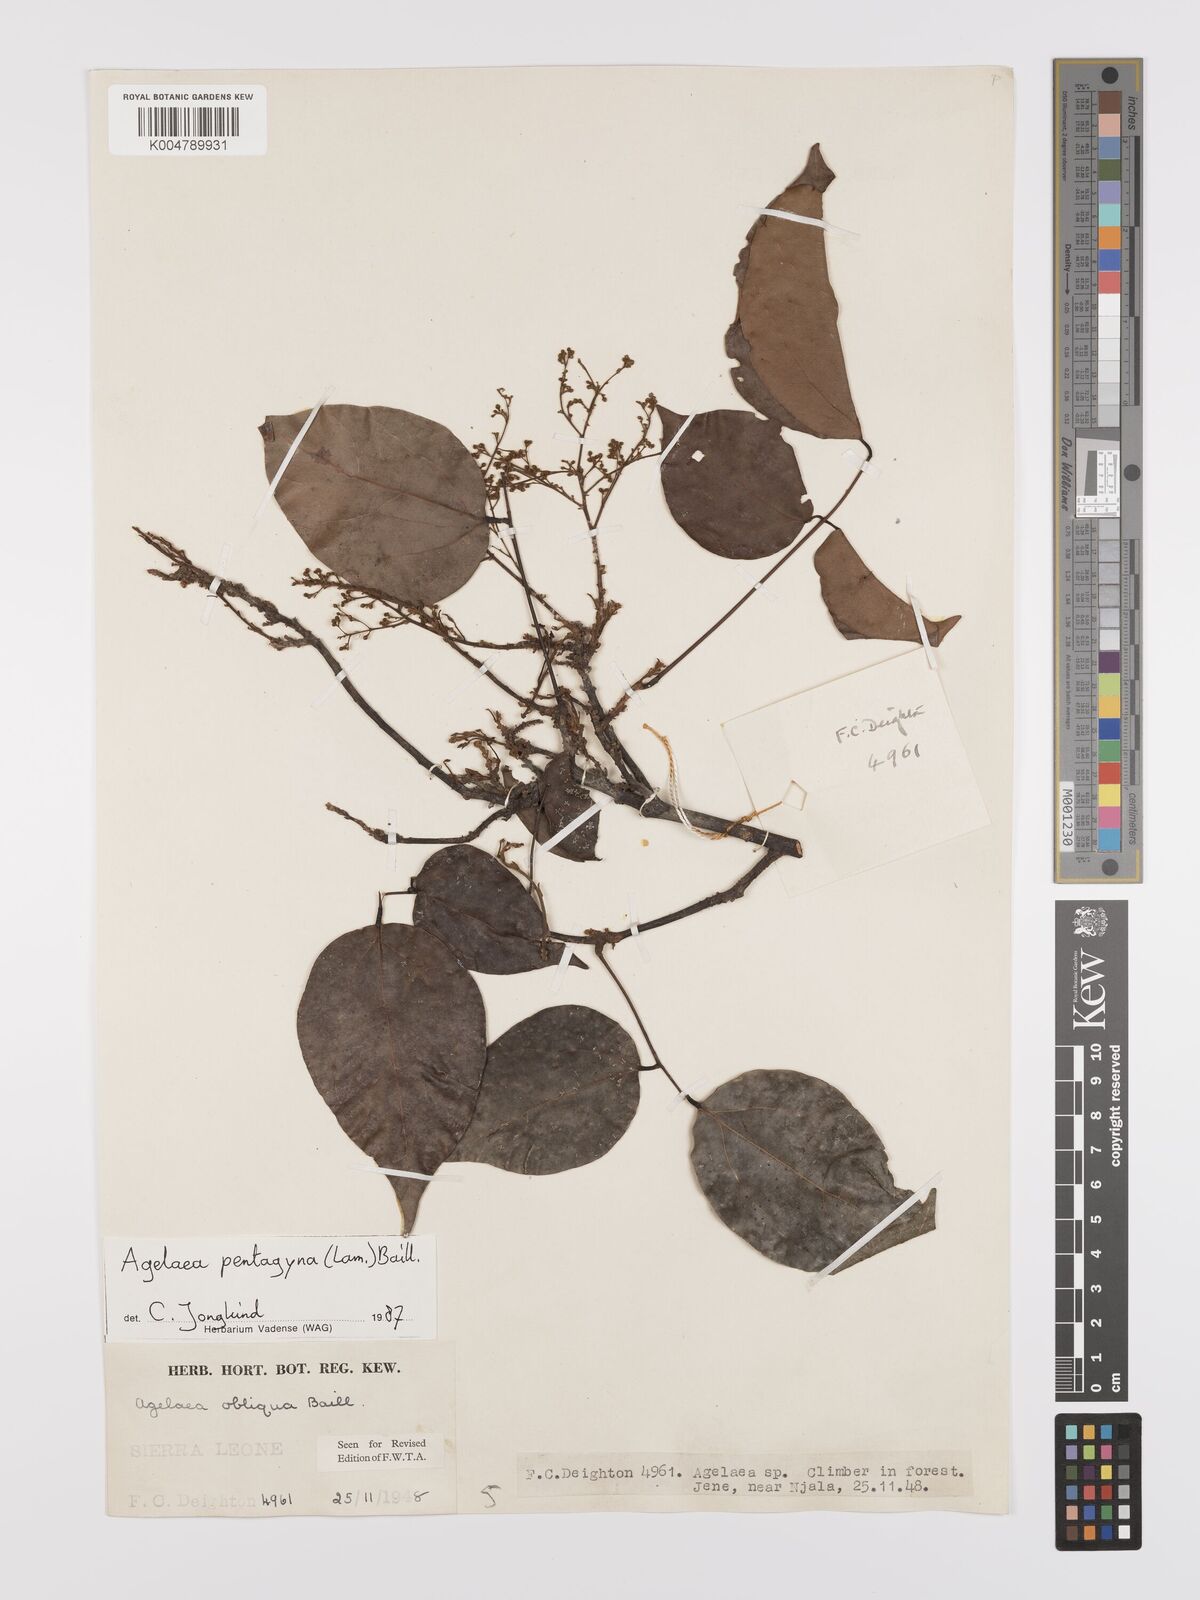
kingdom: Plantae
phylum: Tracheophyta
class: Magnoliopsida
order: Oxalidales
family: Connaraceae
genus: Agelaea
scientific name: Agelaea pentagyna
